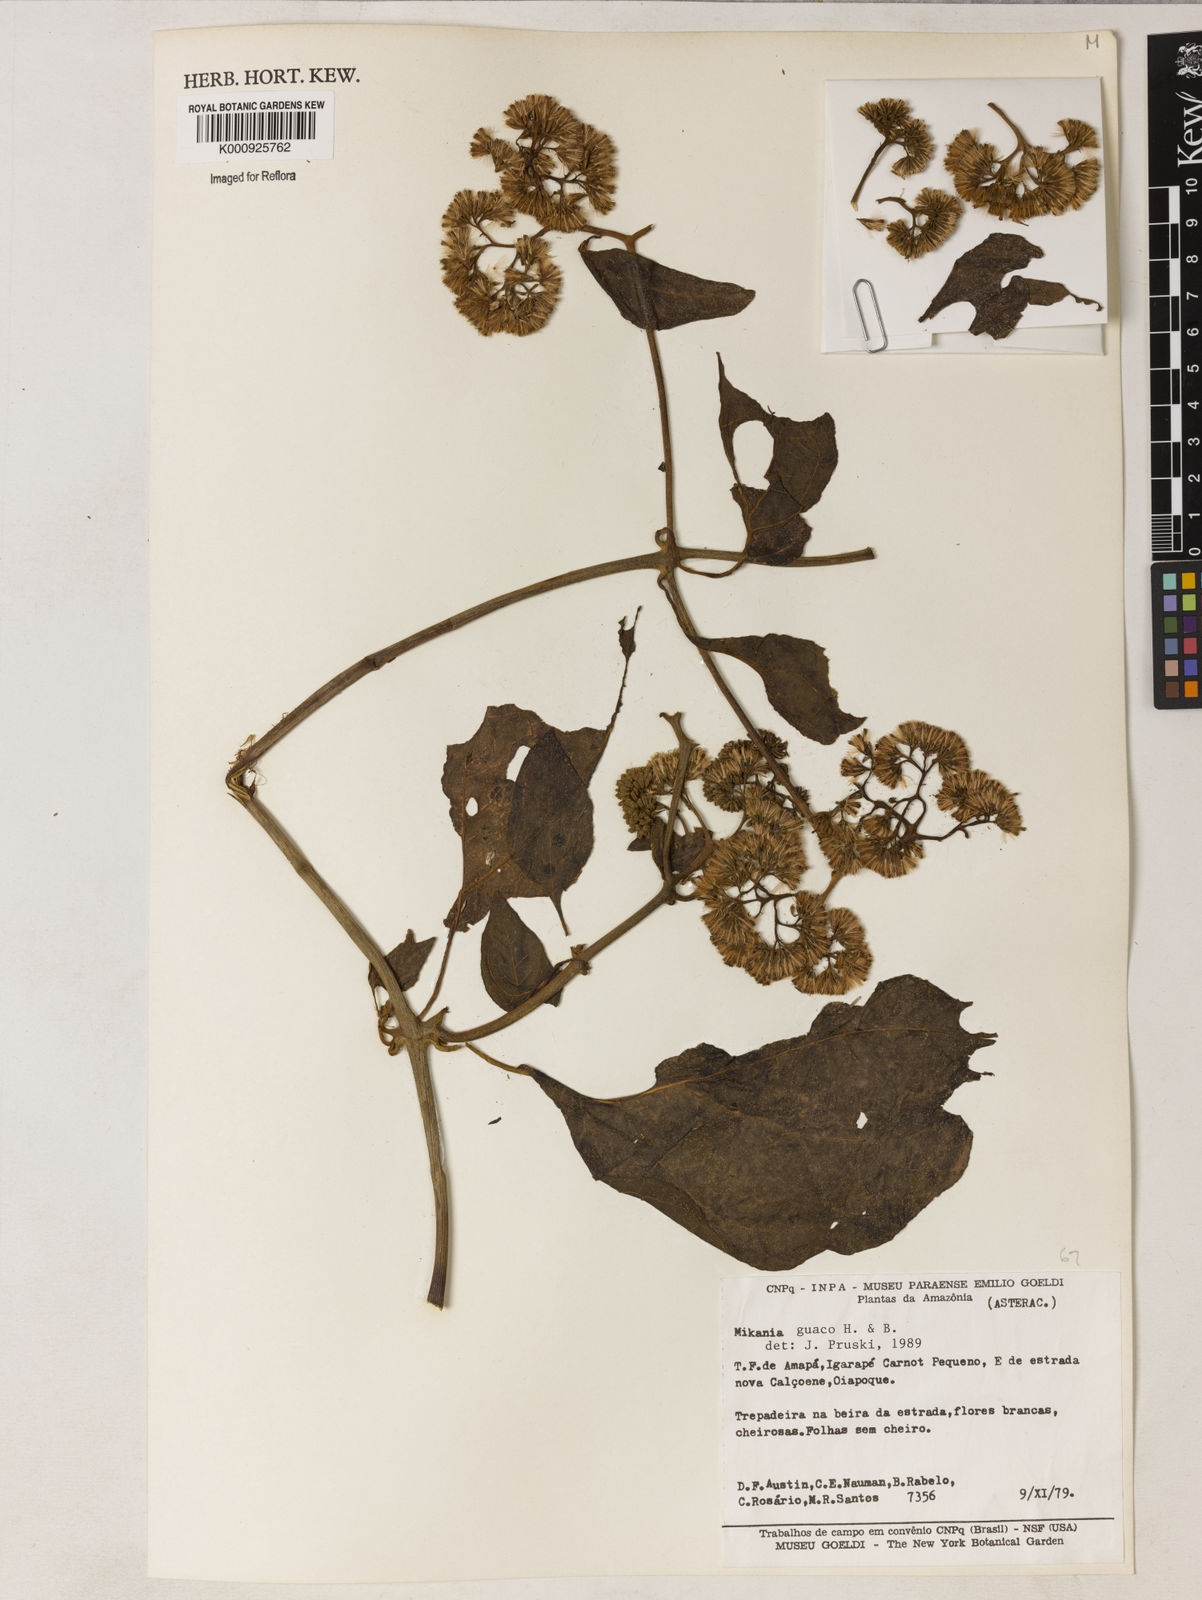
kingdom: Plantae
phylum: Tracheophyta
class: Magnoliopsida
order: Asterales
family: Asteraceae
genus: Mikania
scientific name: Mikania guaco
